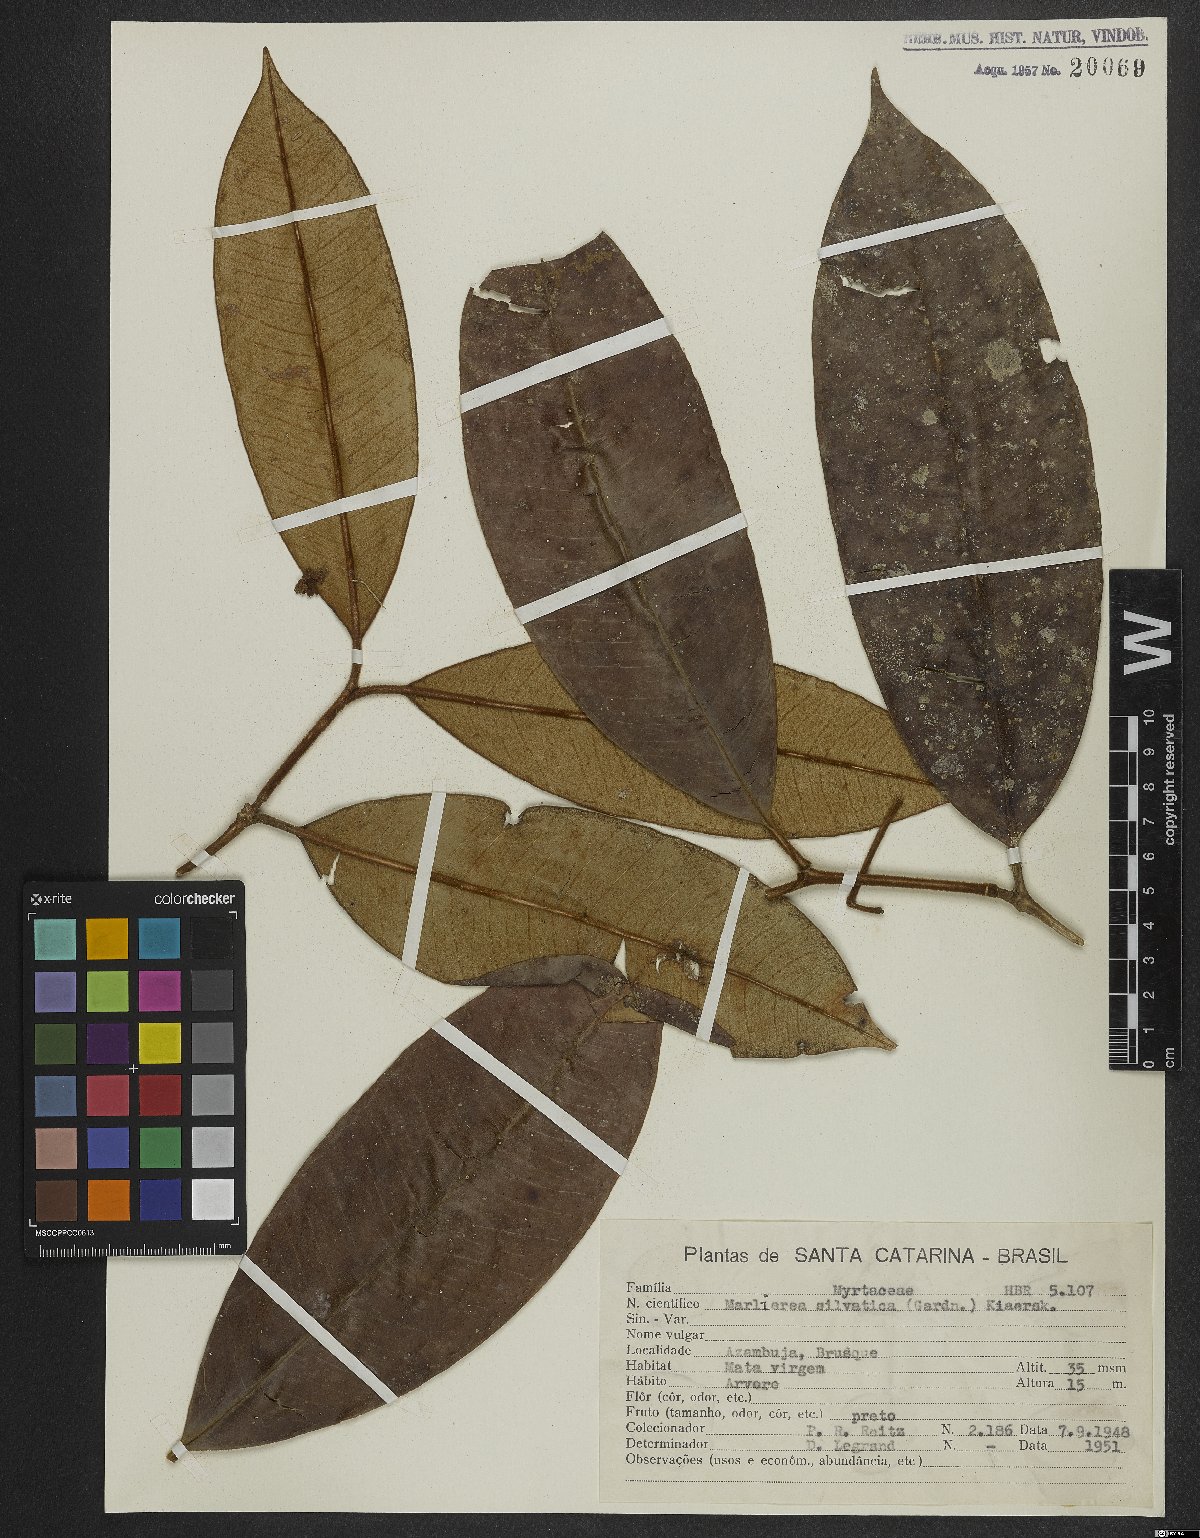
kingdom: Plantae
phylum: Tracheophyta
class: Magnoliopsida
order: Myrtales
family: Myrtaceae
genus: Myrcia
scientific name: Myrcia ferruginosa
